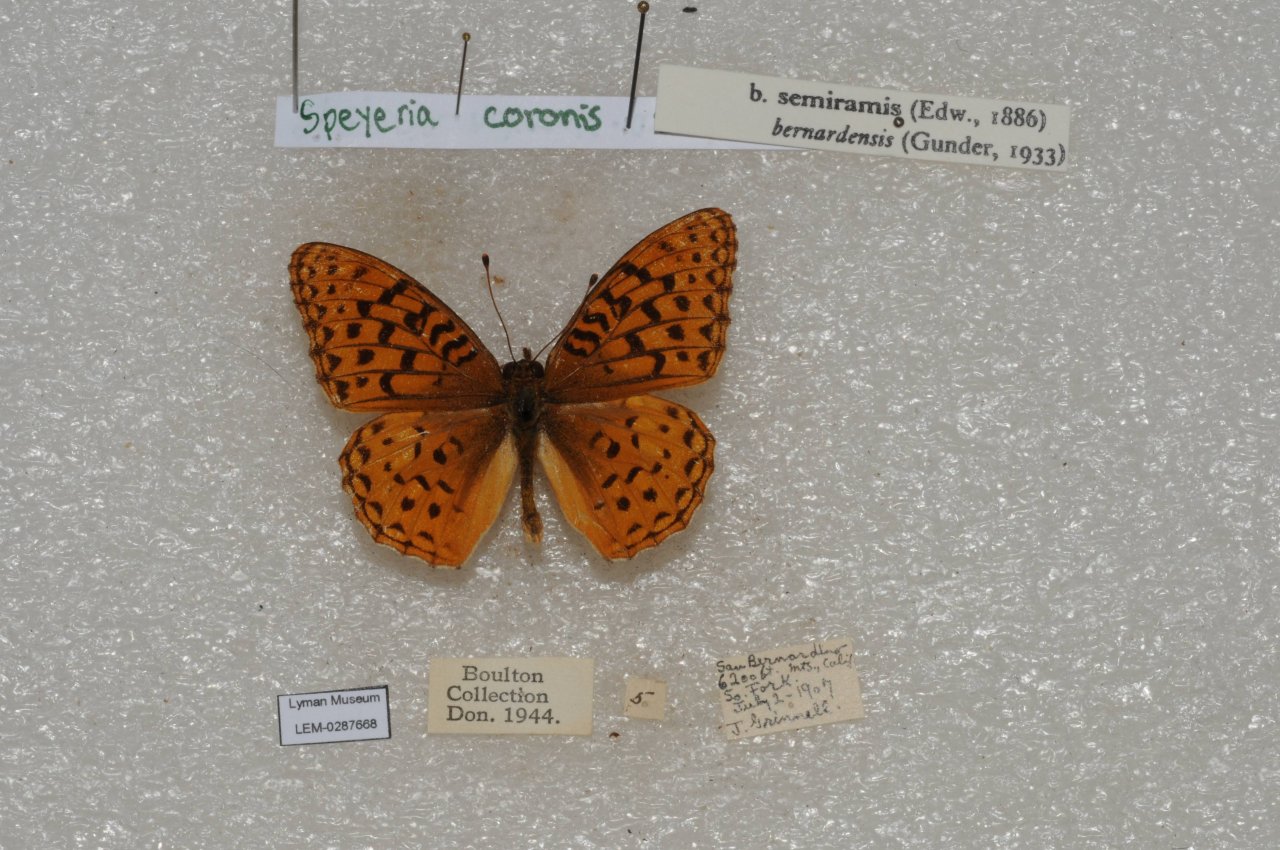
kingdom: Animalia
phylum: Arthropoda
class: Insecta
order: Lepidoptera
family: Nymphalidae
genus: Speyeria
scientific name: Speyeria coronis
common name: Coronis Fritillary
